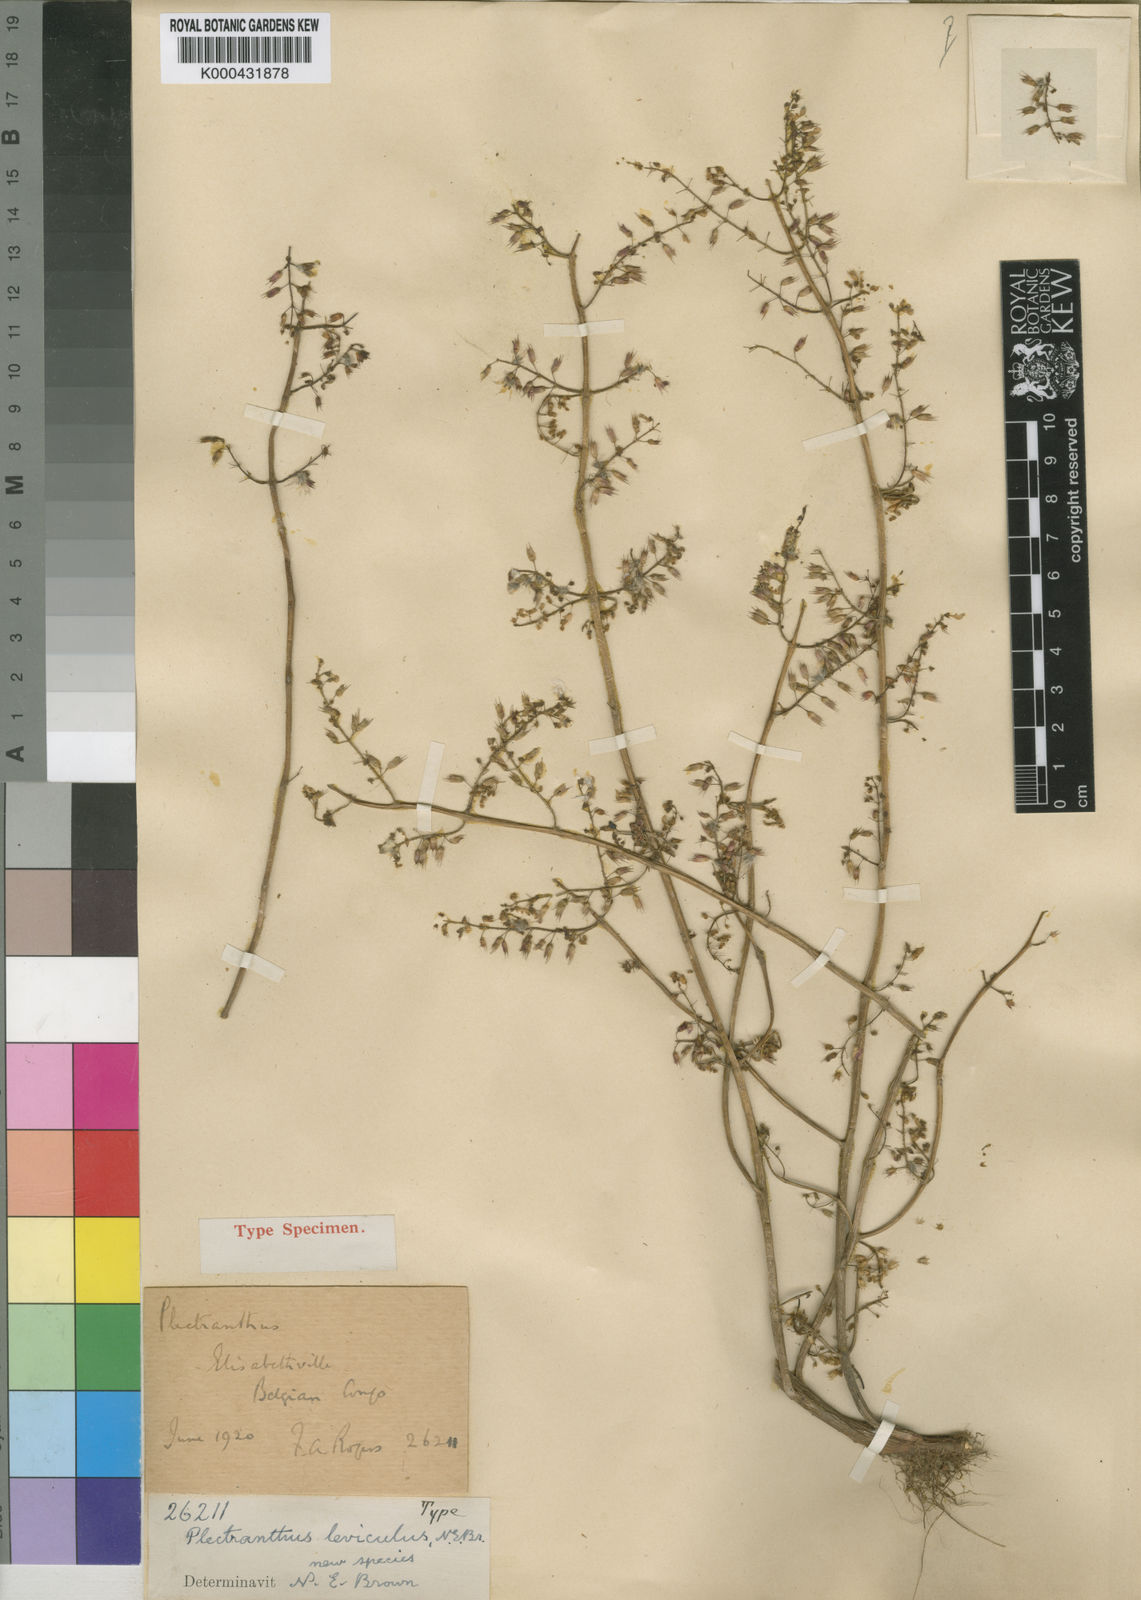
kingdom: Plantae
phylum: Tracheophyta
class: Magnoliopsida
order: Lamiales
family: Lamiaceae
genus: Coleus
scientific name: Coleus efoliatus
